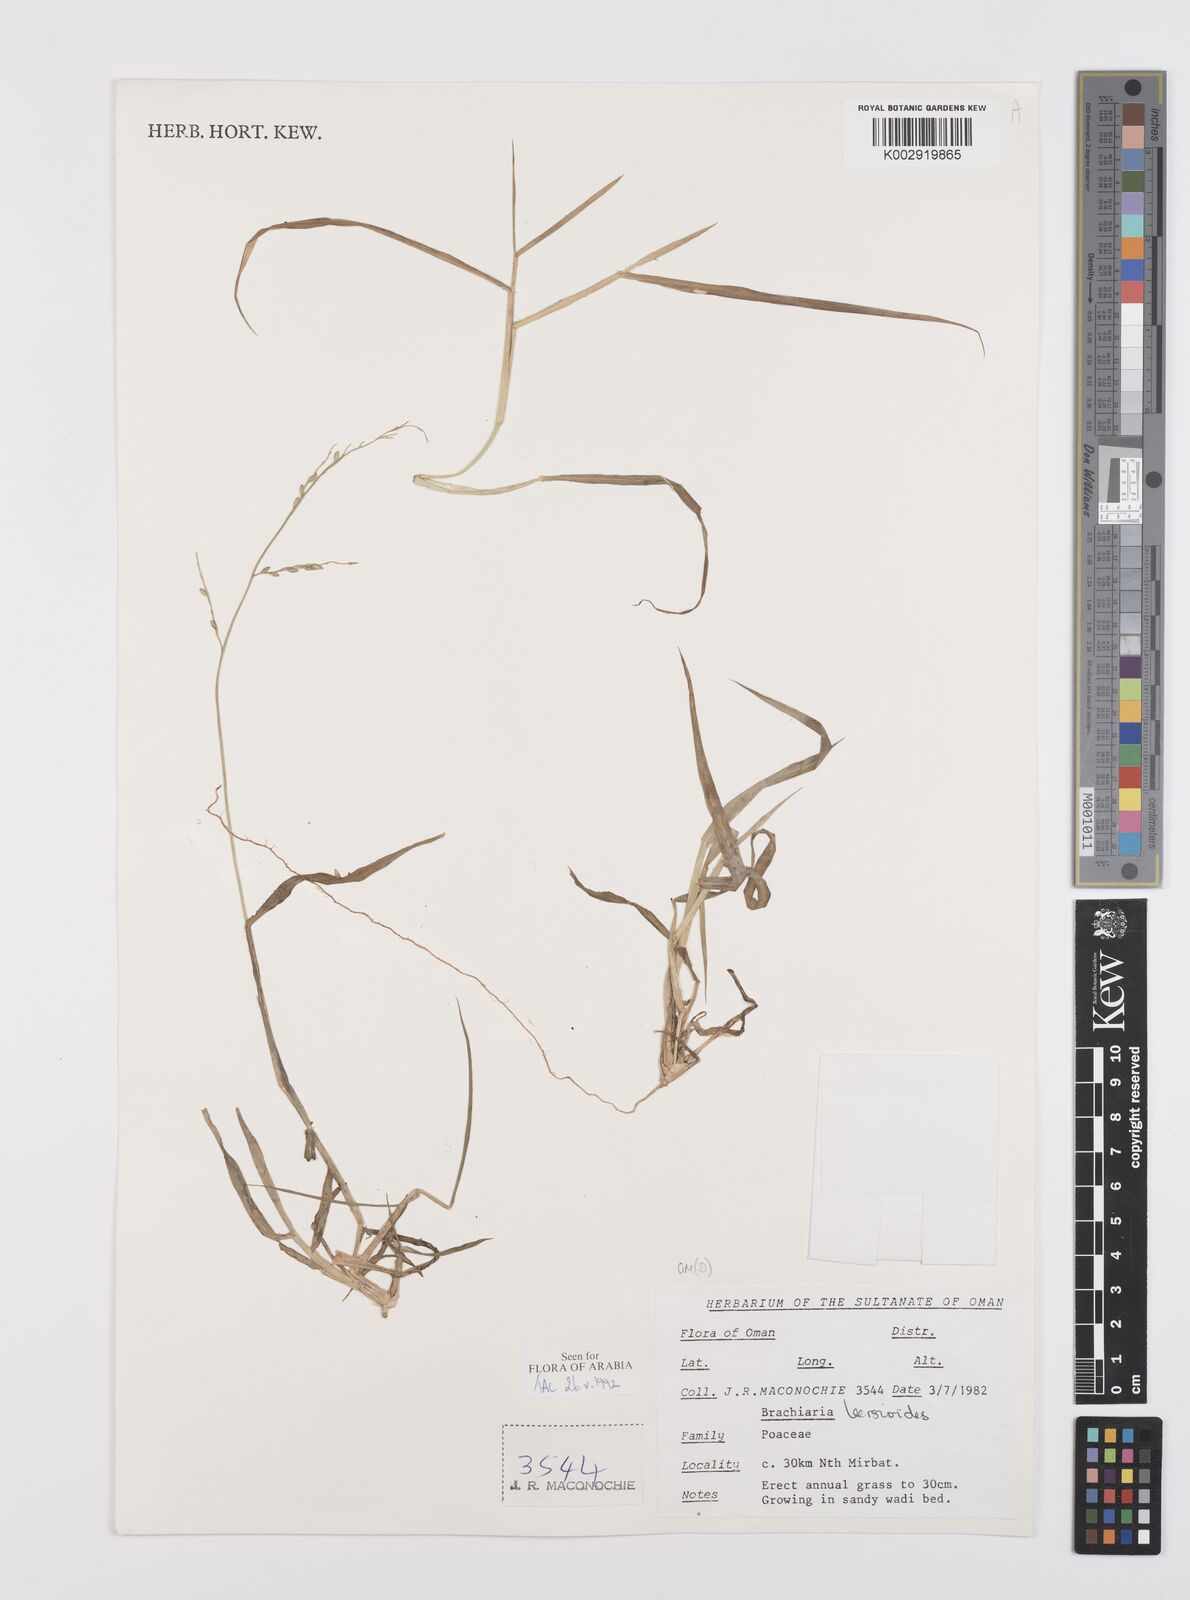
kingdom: Plantae
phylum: Tracheophyta
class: Liliopsida
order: Poales
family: Poaceae
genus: Urochloa
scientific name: Urochloa leersioides
